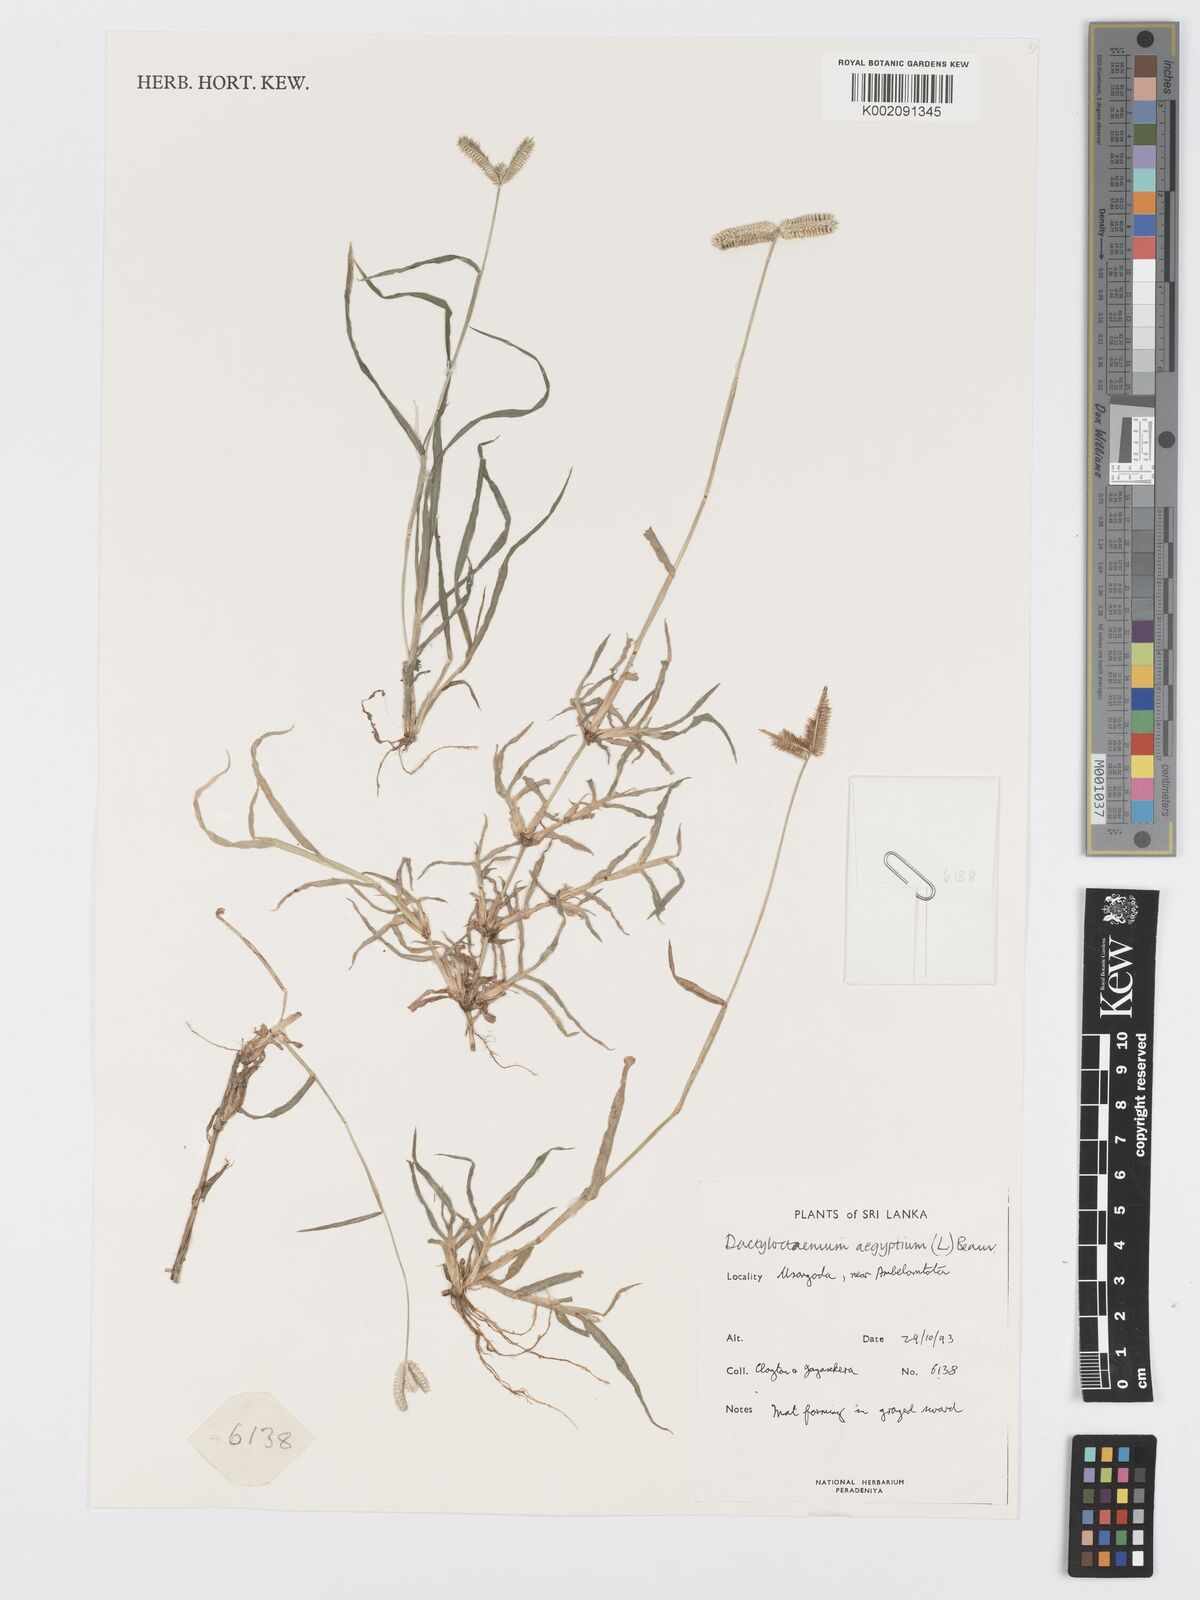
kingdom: Plantae
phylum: Tracheophyta
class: Liliopsida
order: Poales
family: Poaceae
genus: Dactyloctenium
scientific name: Dactyloctenium aegyptium
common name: Egyptian grass
